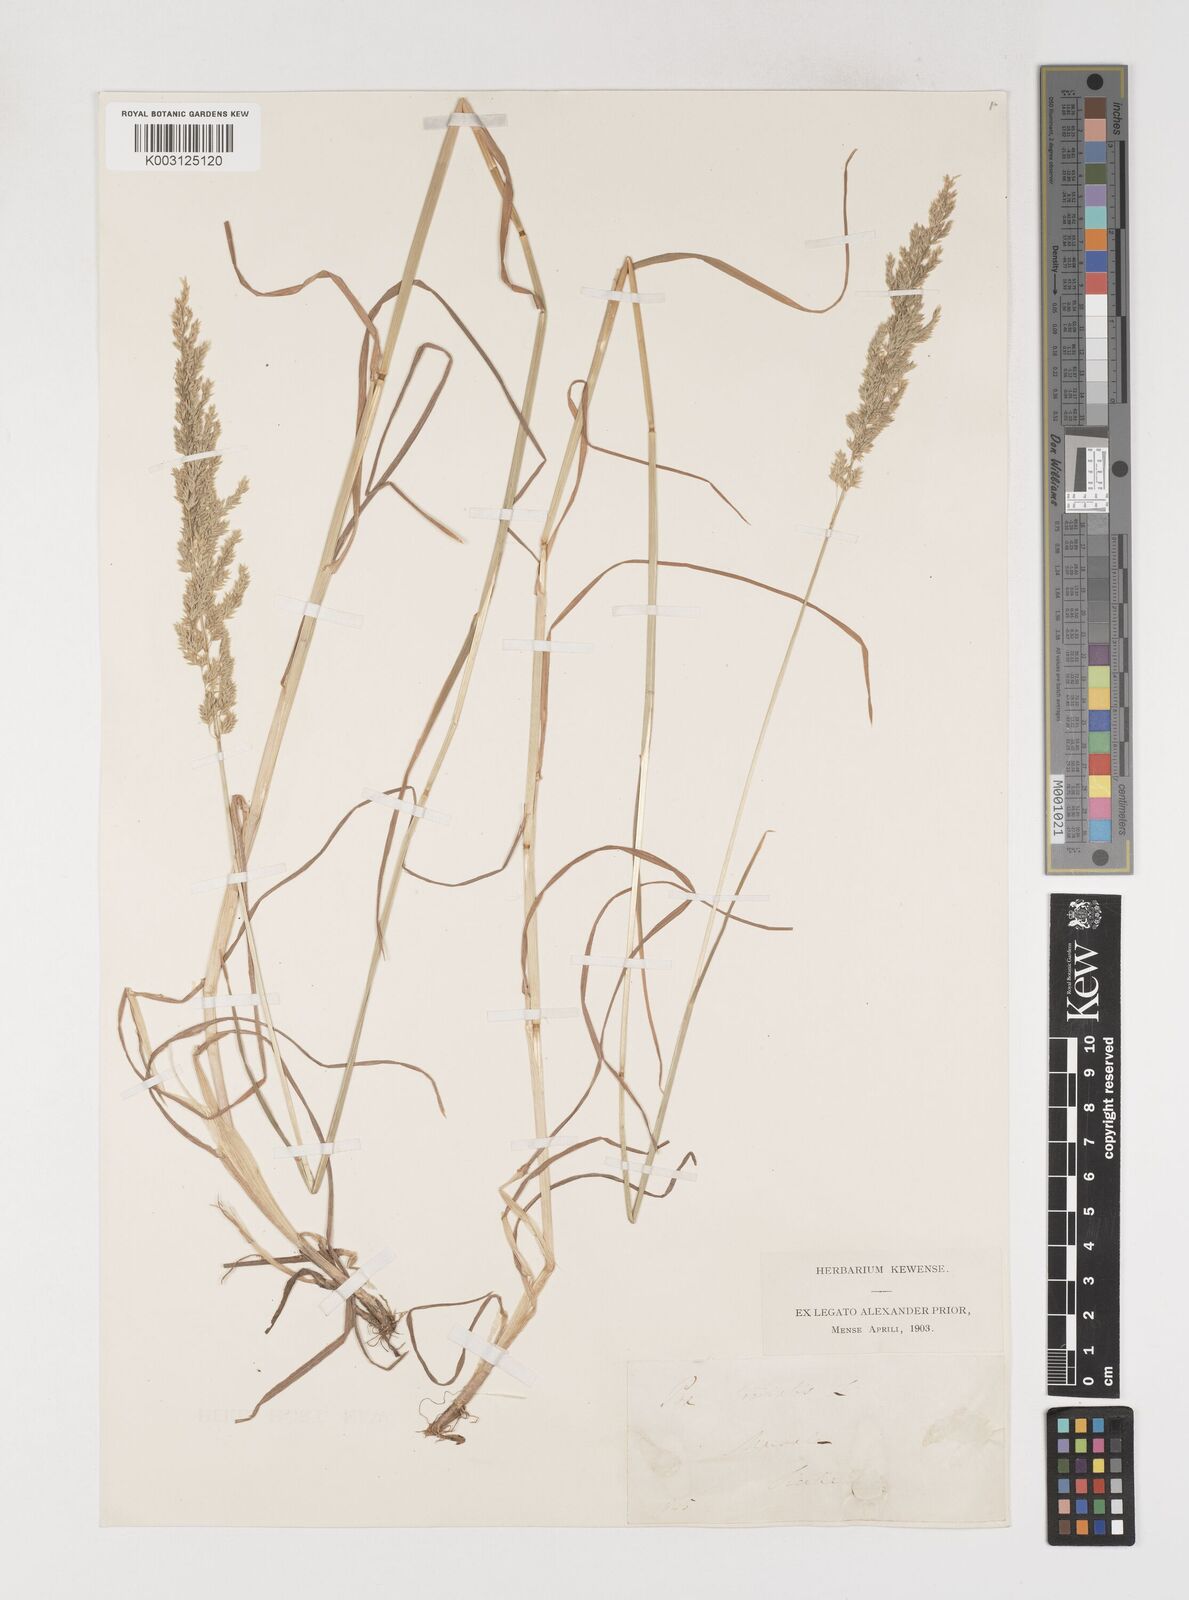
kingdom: Plantae
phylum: Tracheophyta
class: Liliopsida
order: Poales
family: Poaceae
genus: Poa
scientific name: Poa trivialis
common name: Rough bluegrass
